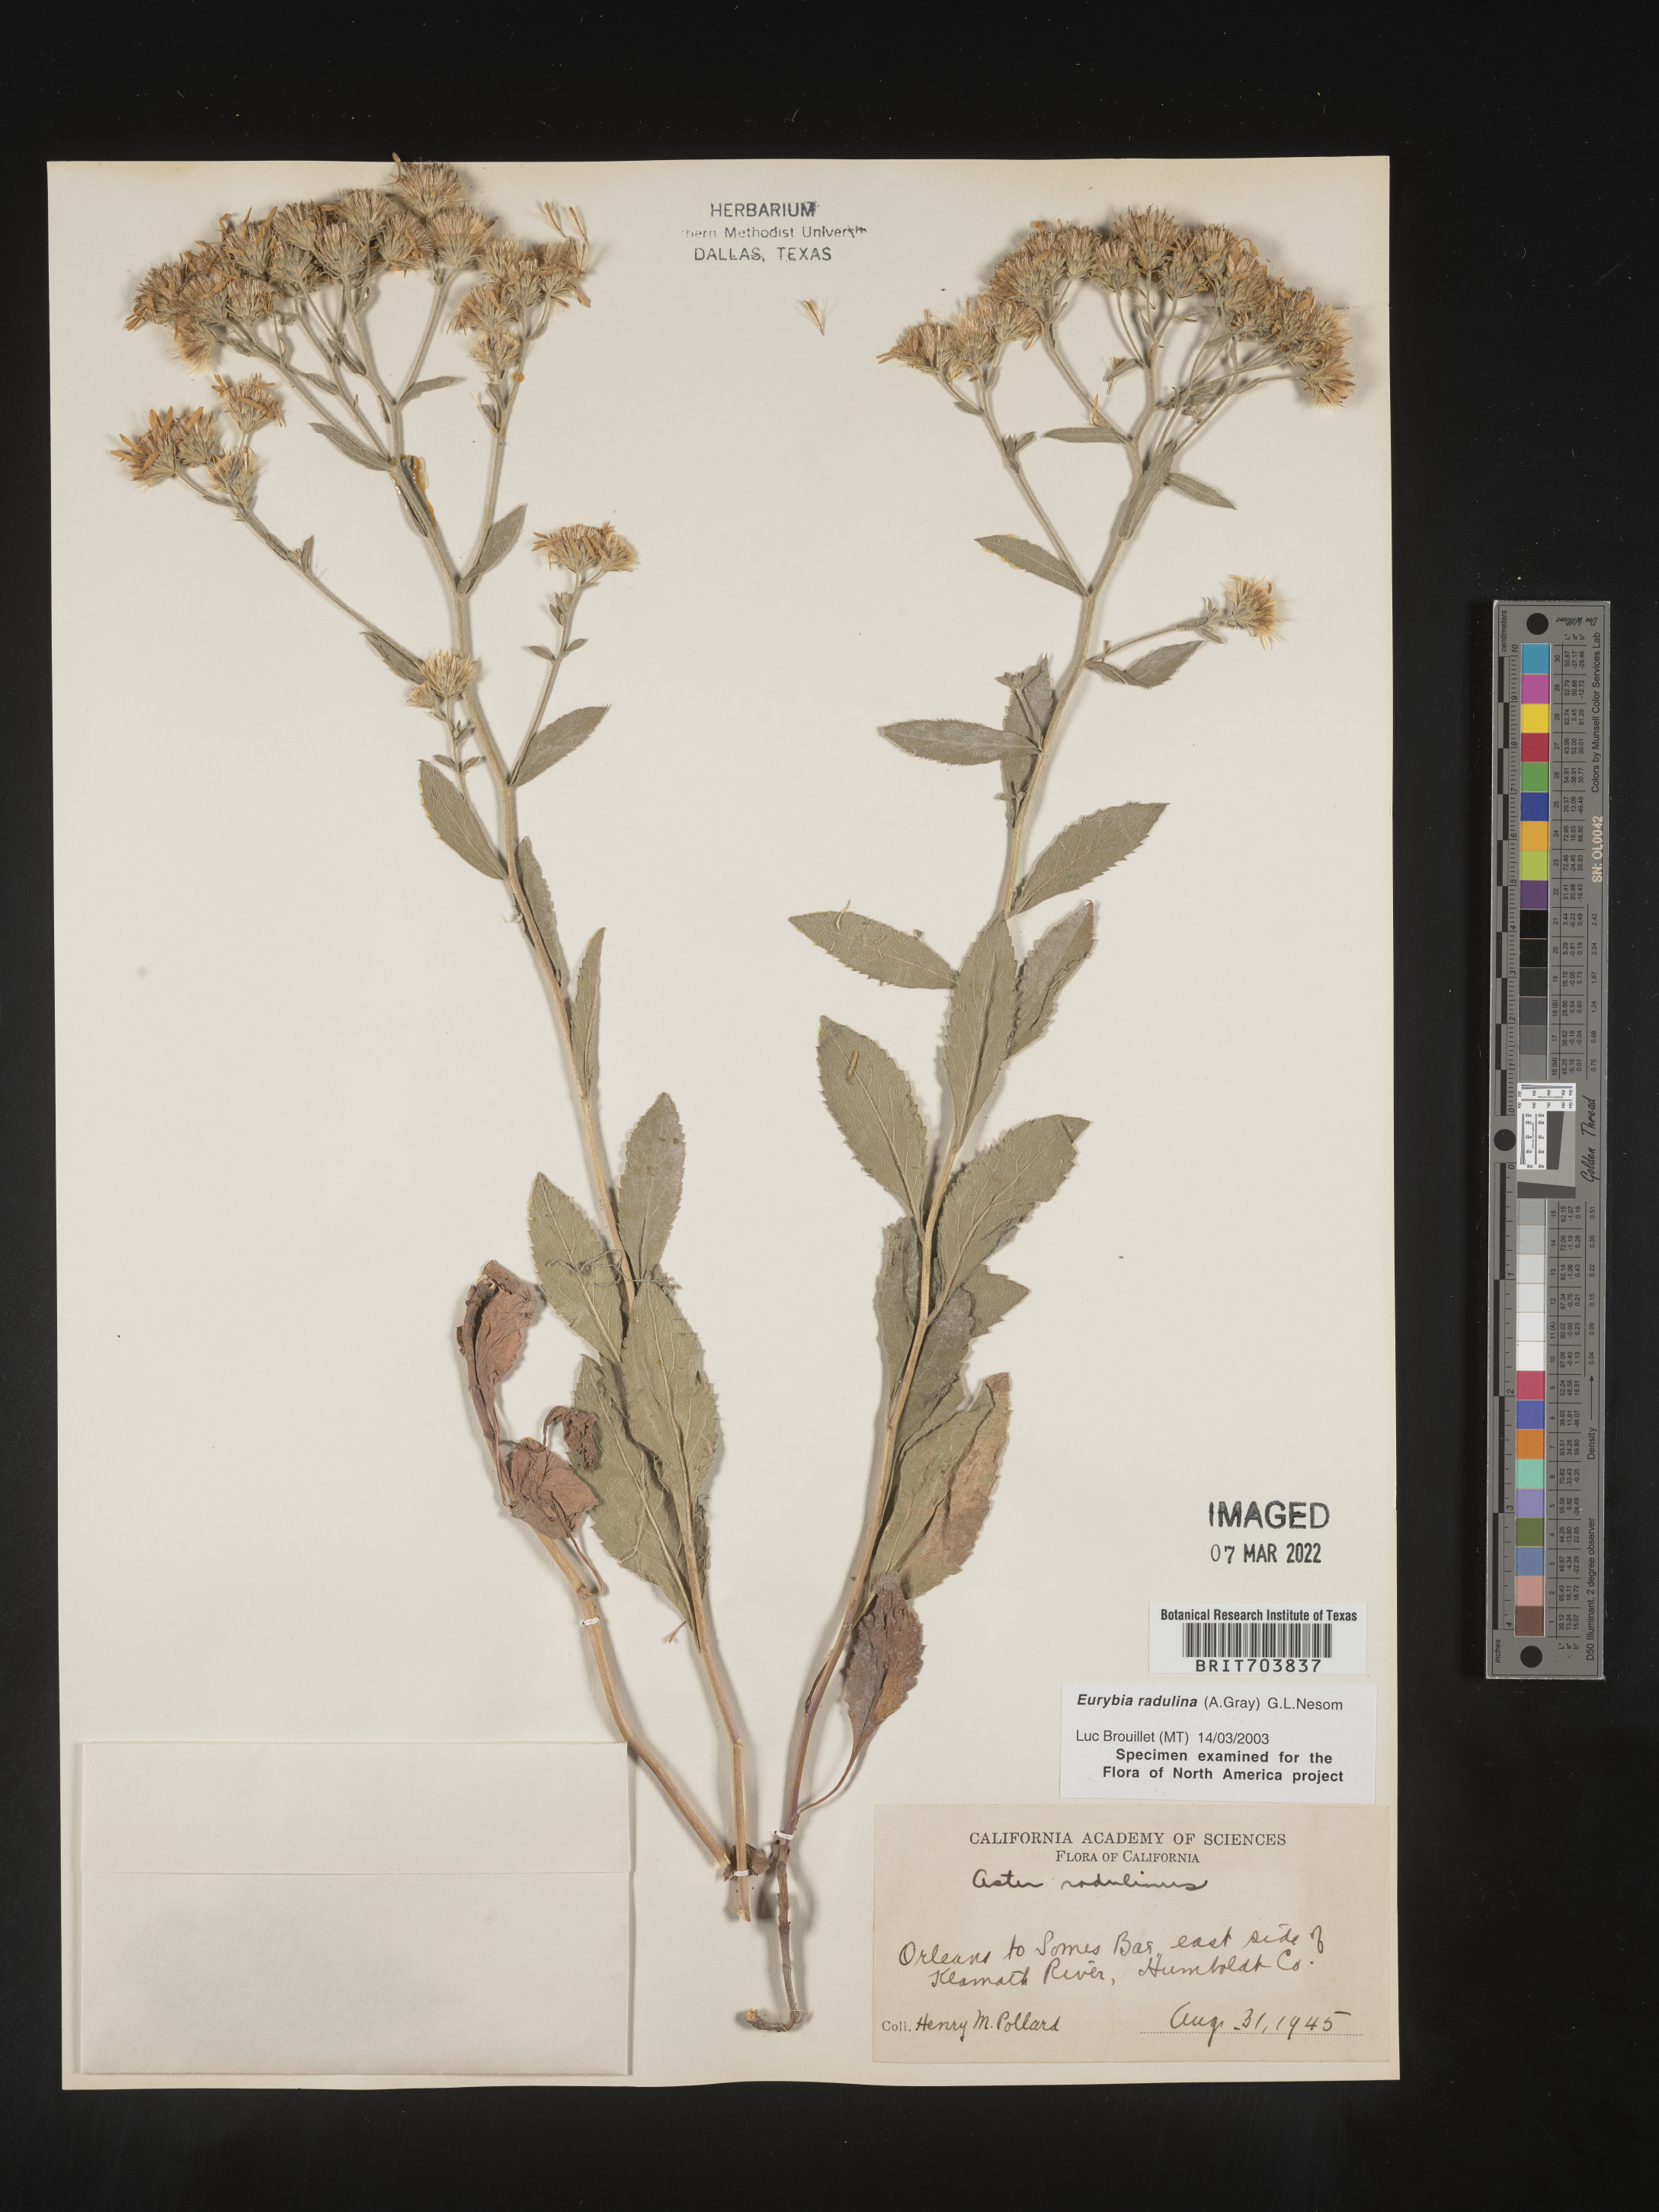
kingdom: Plantae
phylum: Tracheophyta
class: Magnoliopsida
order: Asterales
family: Asteraceae
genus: Eurybia
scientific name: Eurybia radulina
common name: Rough-leaved aster
